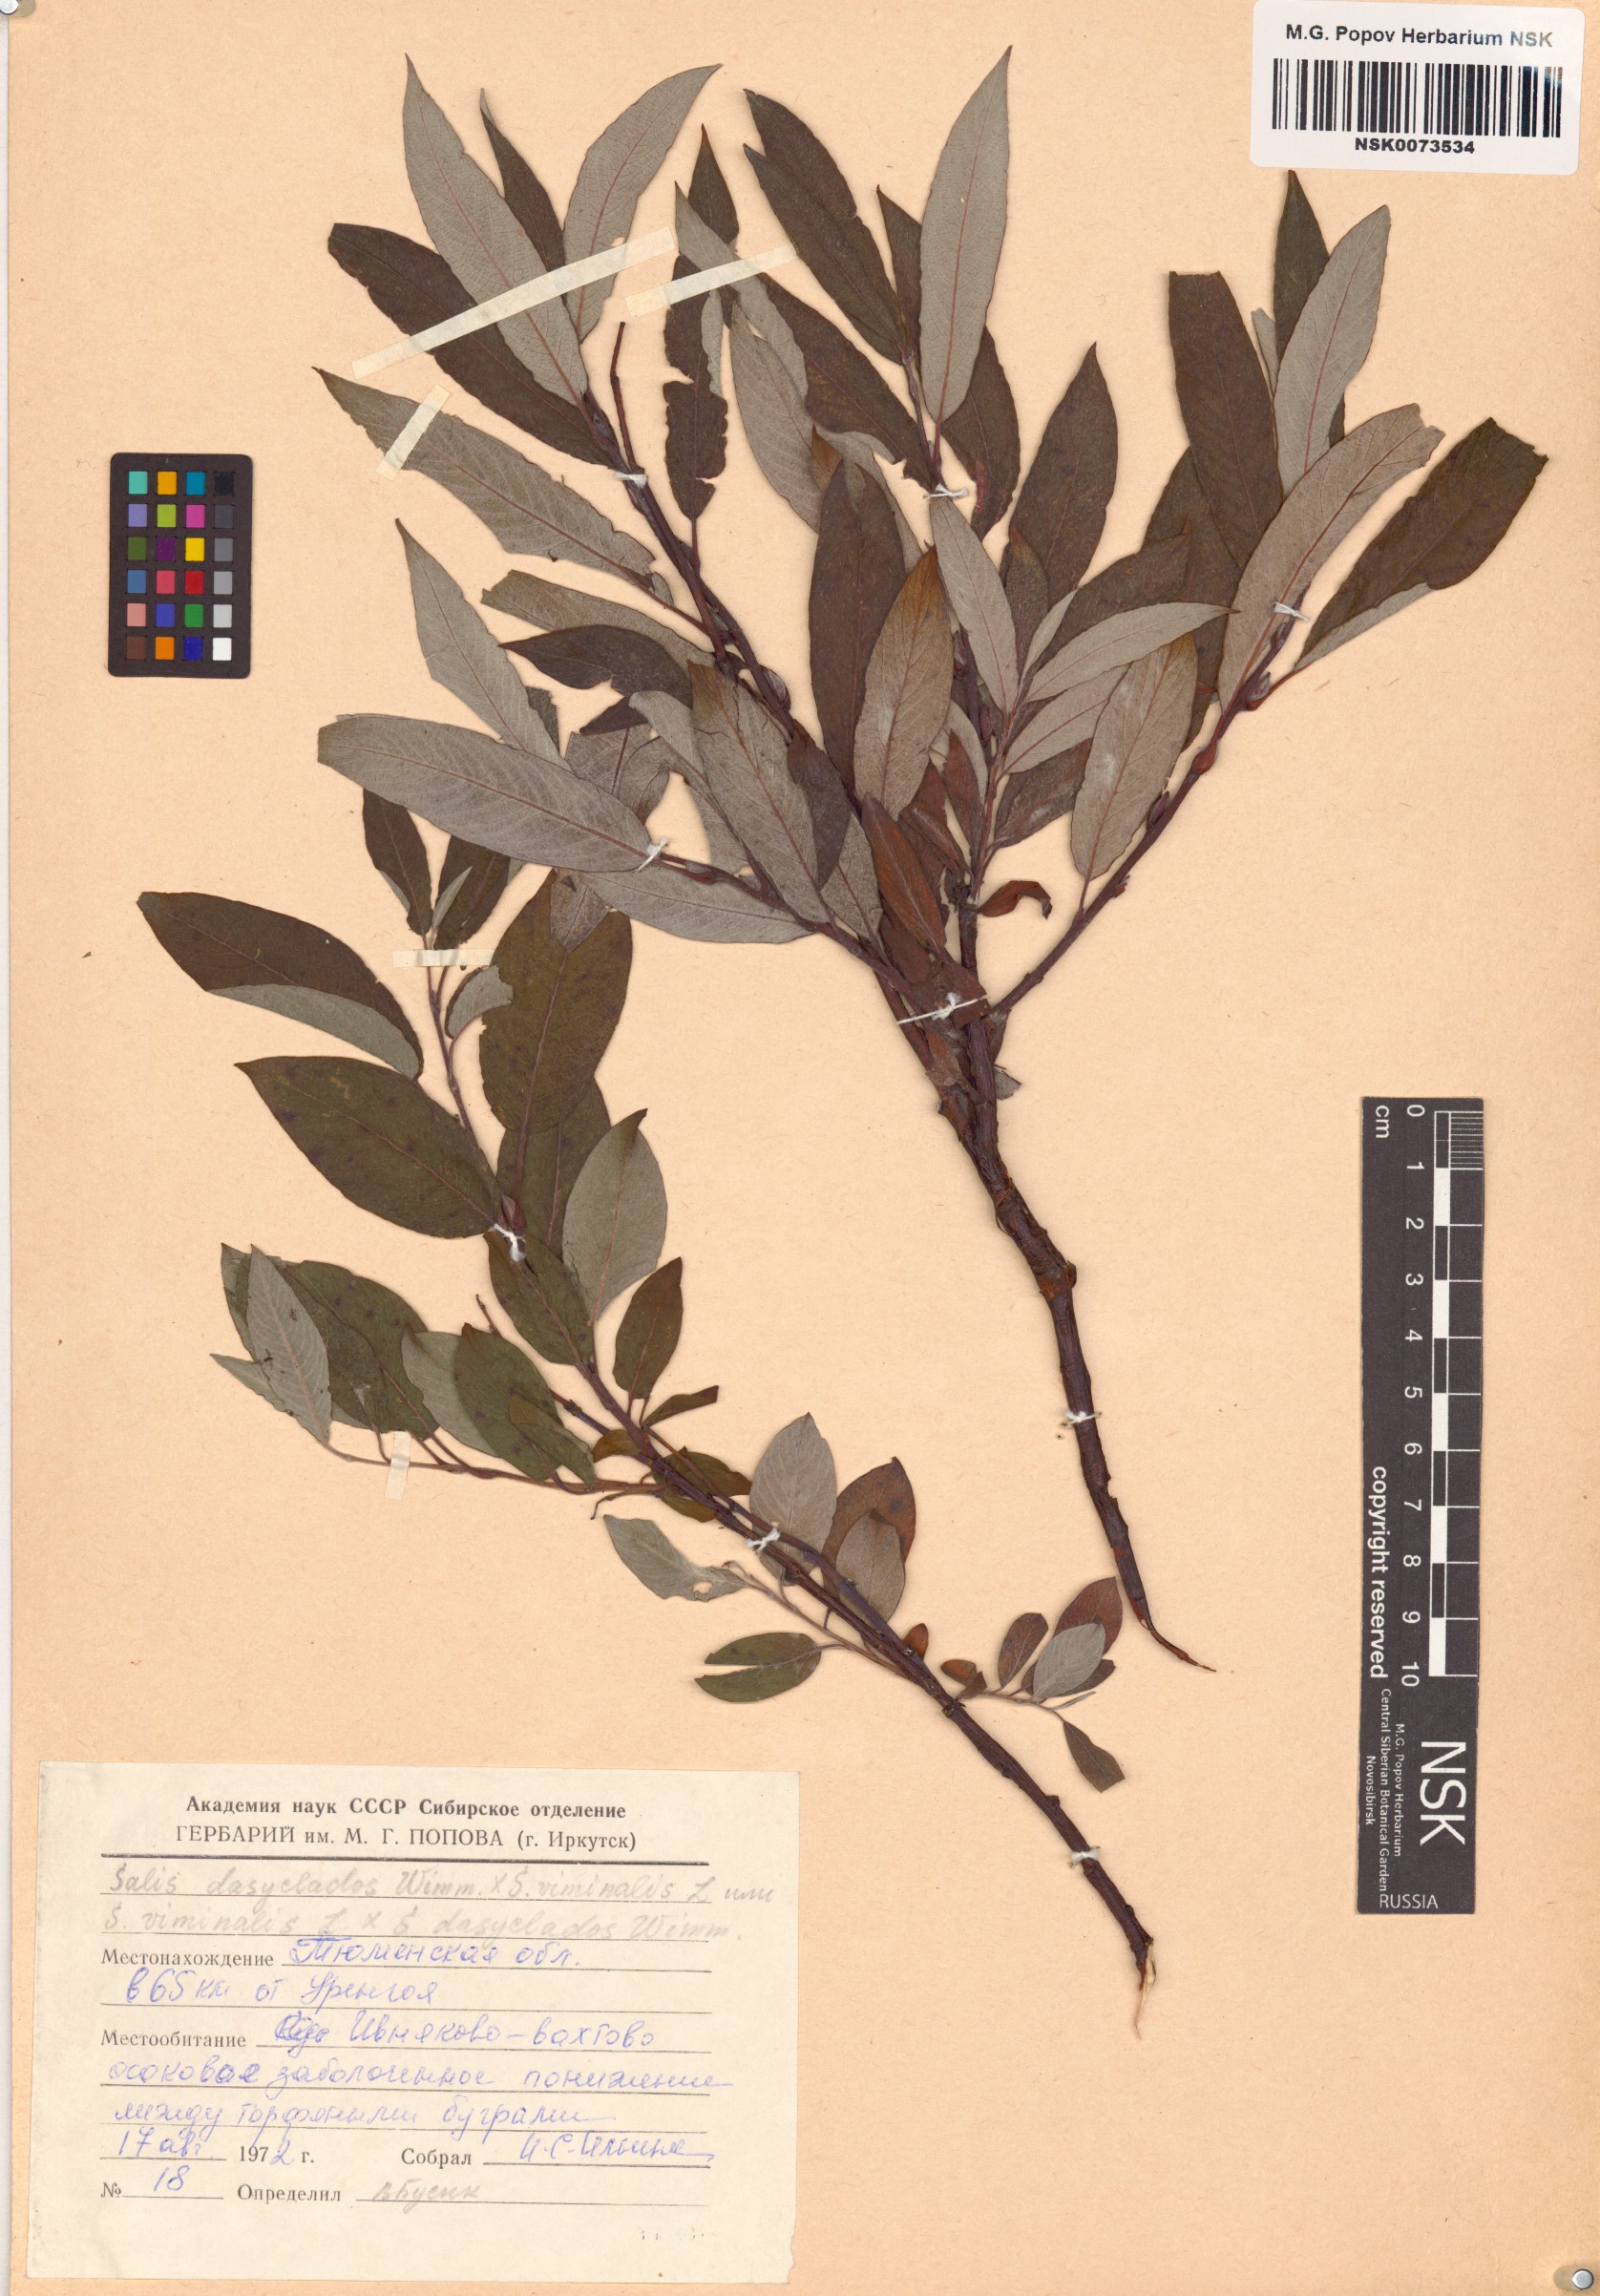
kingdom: Plantae
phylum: Tracheophyta
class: Magnoliopsida
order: Malpighiales
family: Salicaceae
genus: Salix
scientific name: Salix
